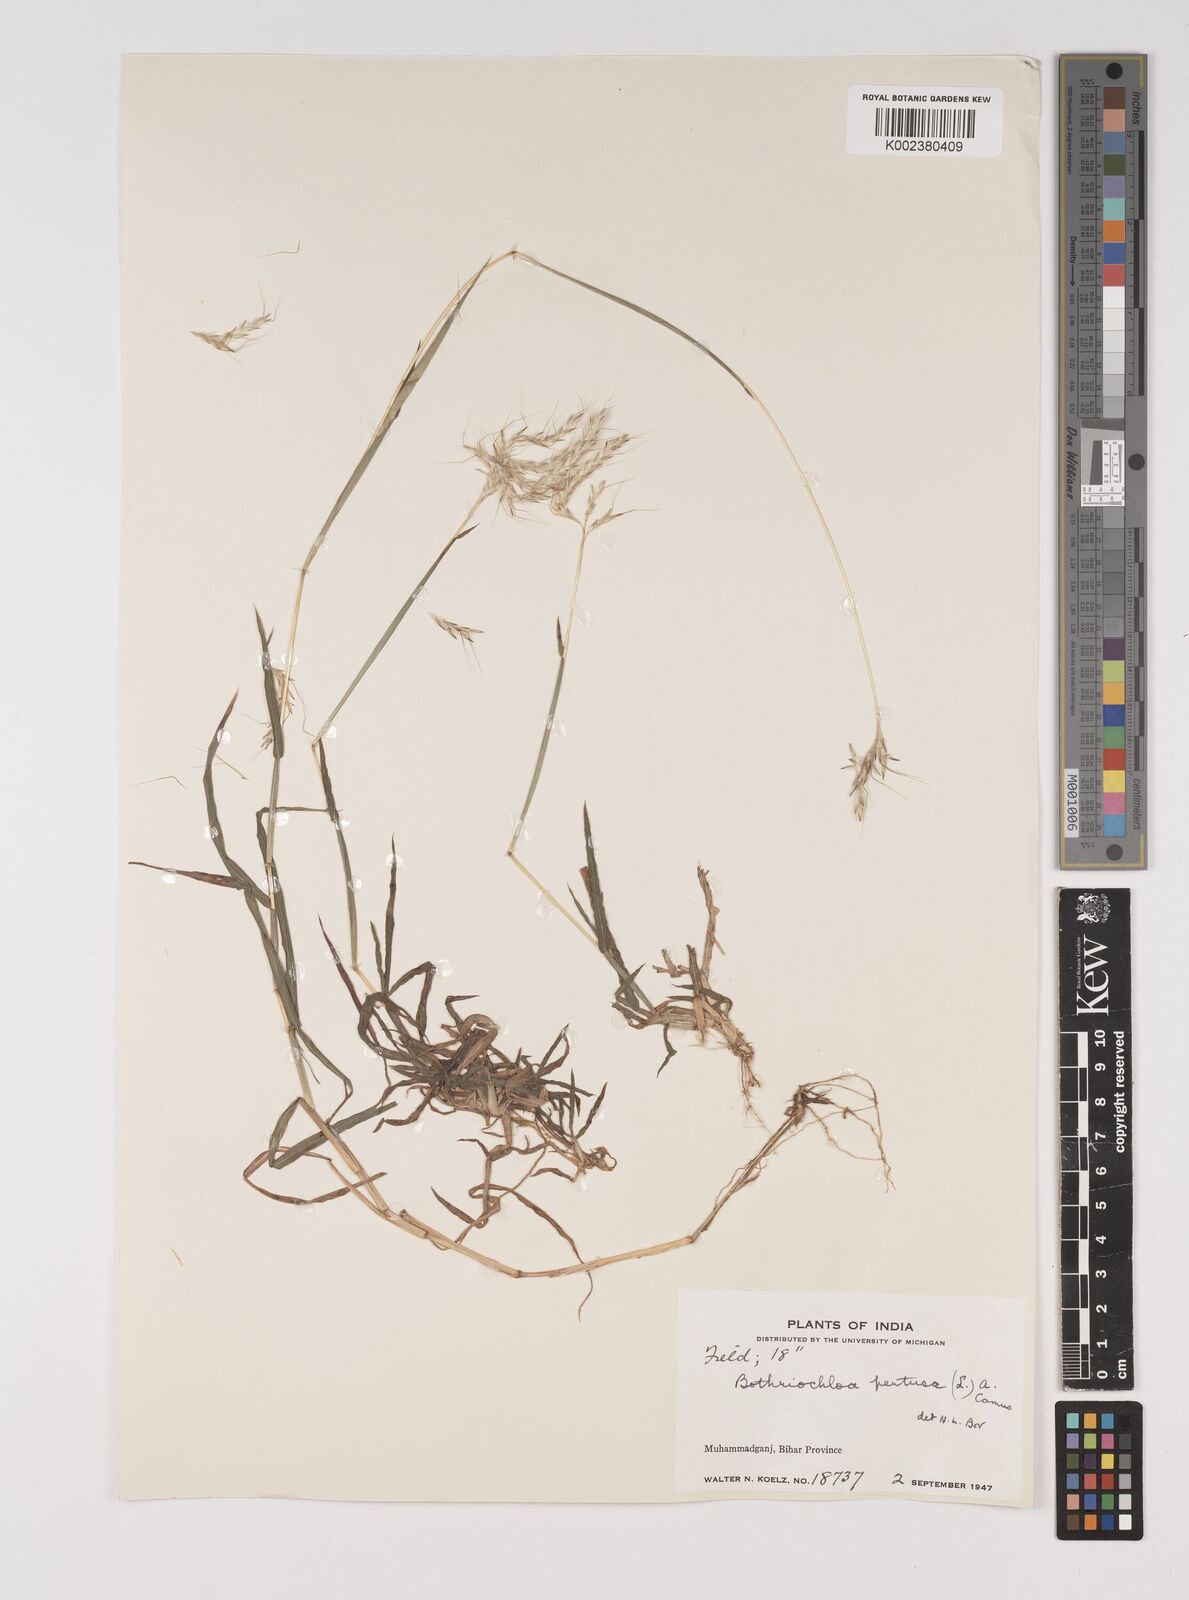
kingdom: Plantae
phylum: Tracheophyta
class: Liliopsida
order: Poales
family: Poaceae
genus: Bothriochloa
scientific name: Bothriochloa pertusa
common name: Pitted beardgrass
